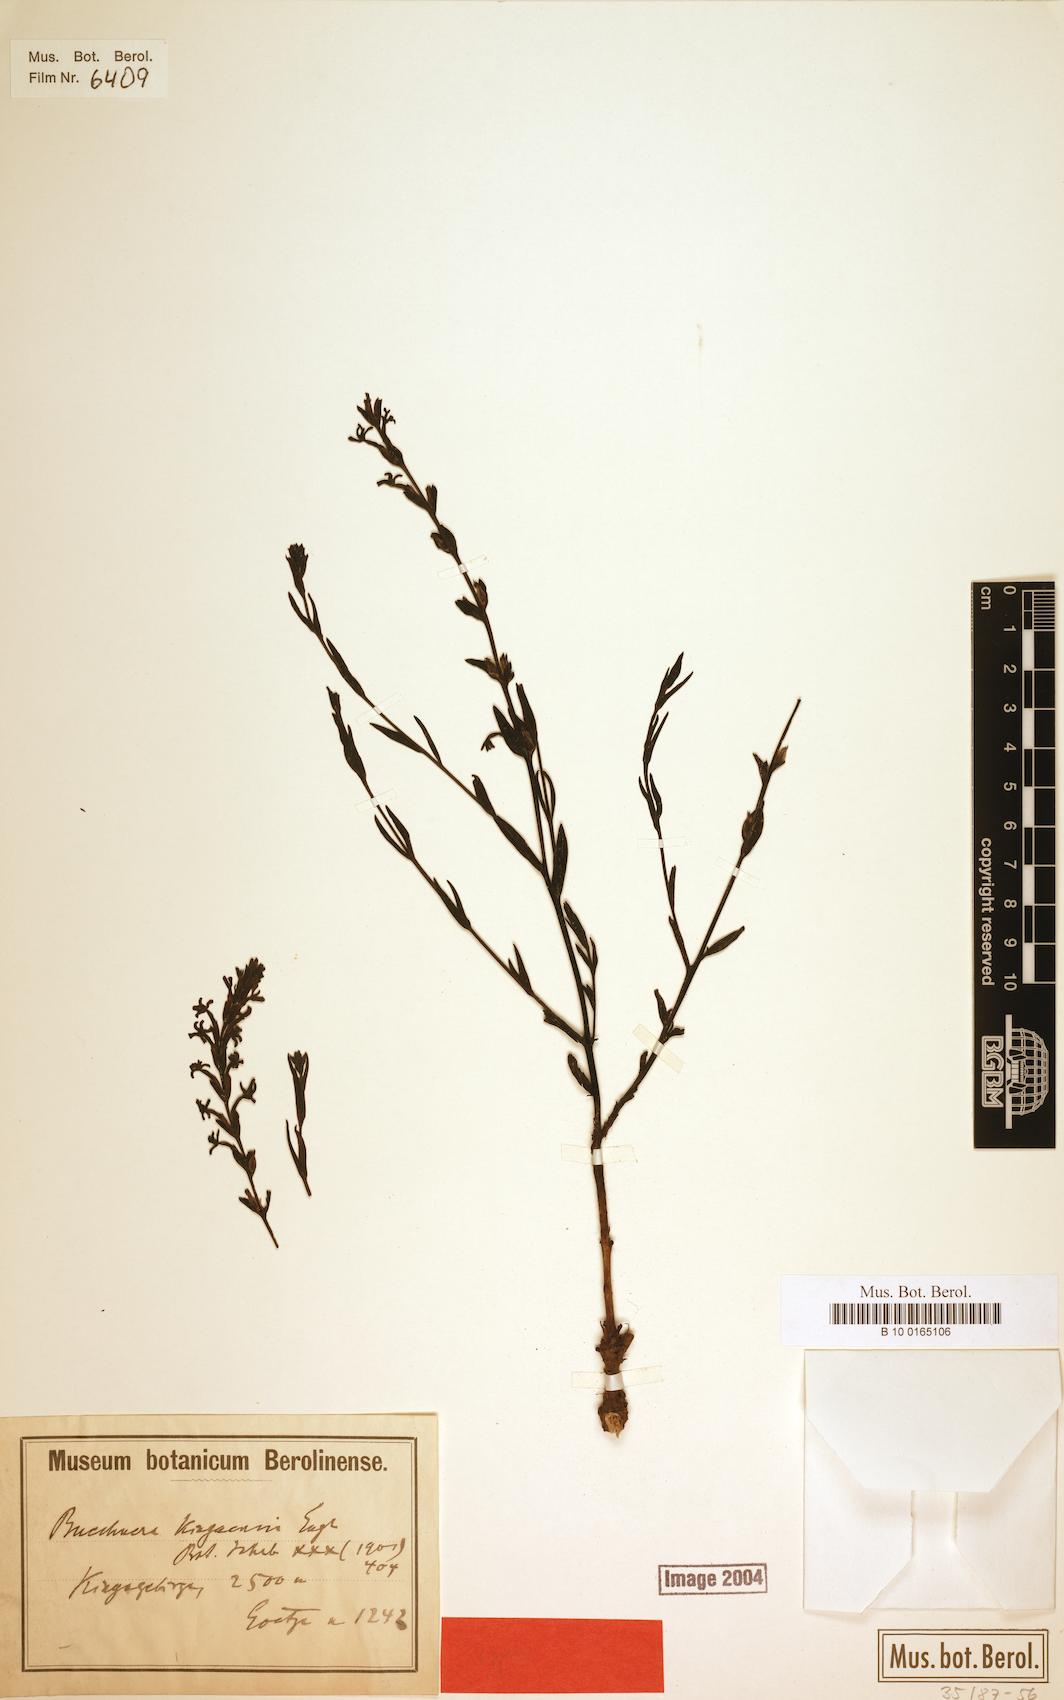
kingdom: Plantae
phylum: Tracheophyta
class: Magnoliopsida
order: Lamiales
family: Orobanchaceae
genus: Buchnera
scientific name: Buchnera kingaensis
